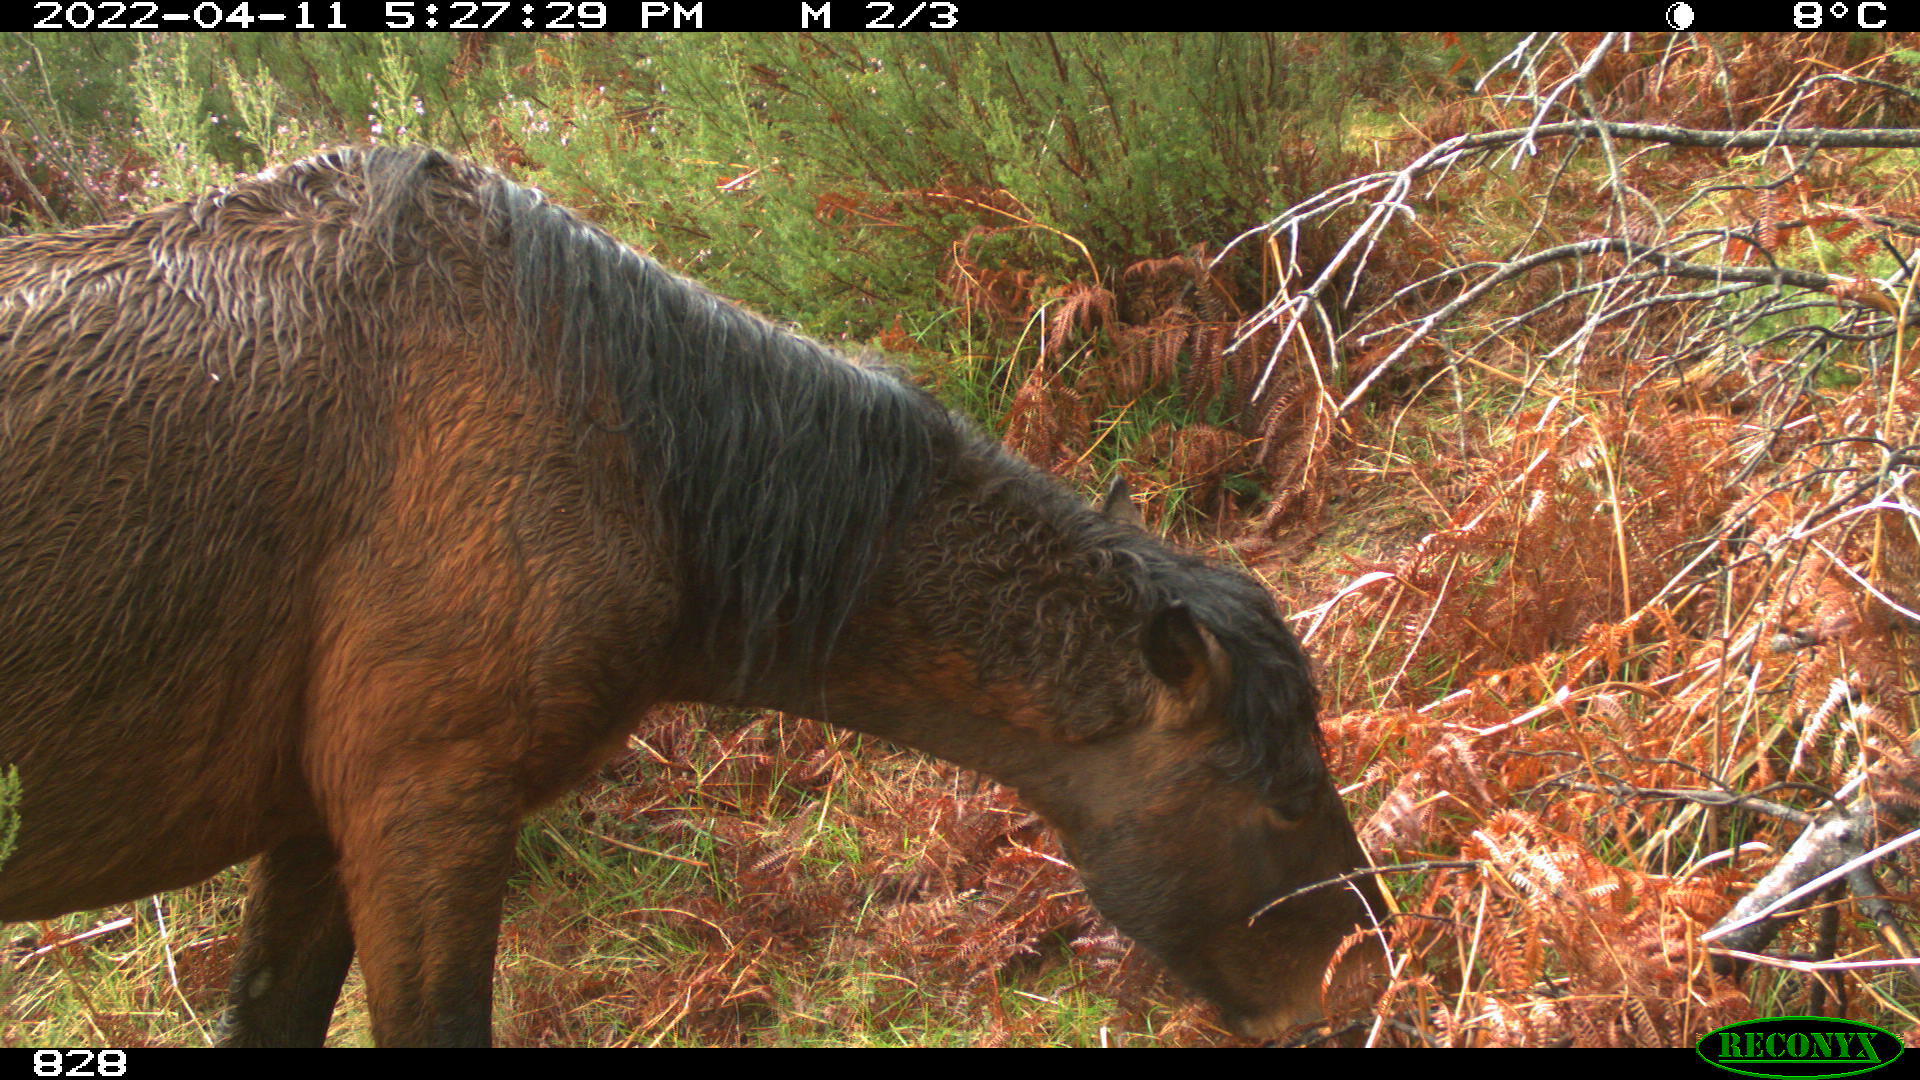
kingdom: Animalia
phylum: Chordata
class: Mammalia
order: Perissodactyla
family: Equidae
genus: Equus
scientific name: Equus caballus
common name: Horse
